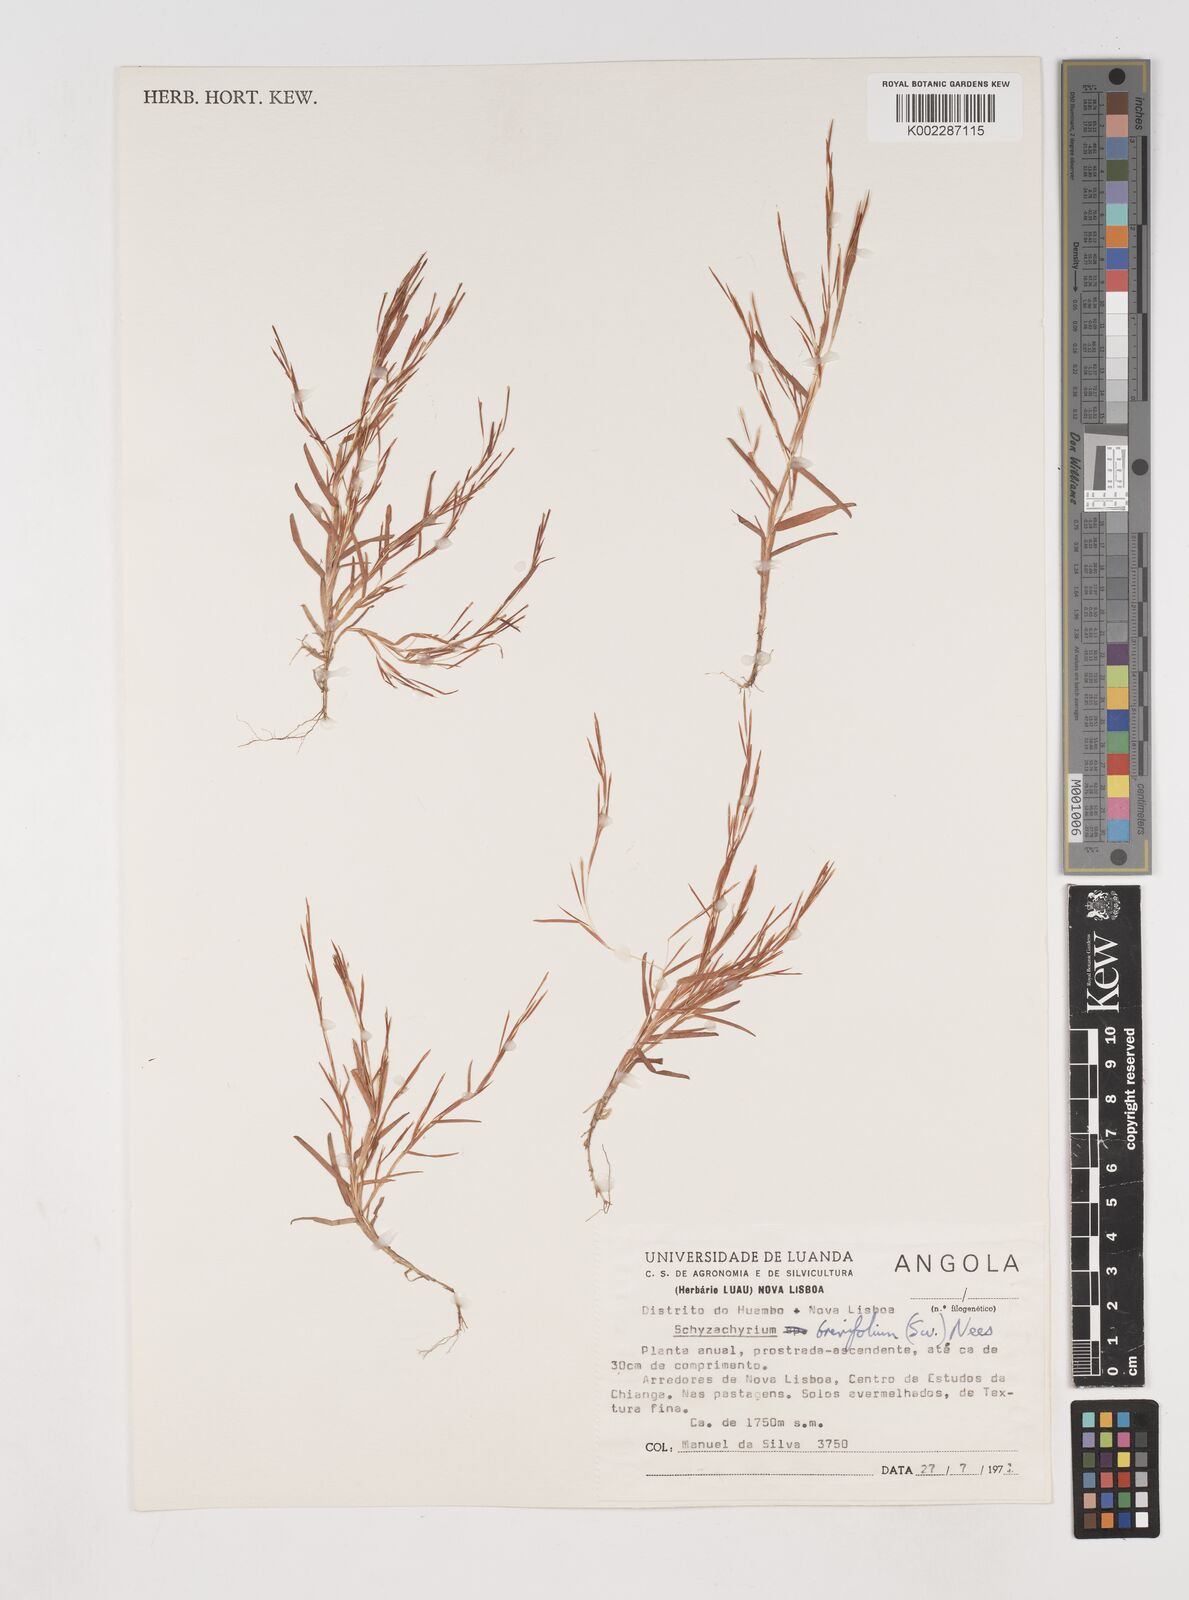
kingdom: Plantae
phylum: Tracheophyta
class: Liliopsida
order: Poales
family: Poaceae
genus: Schizachyrium
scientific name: Schizachyrium brevifolium
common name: Serillo dulce
